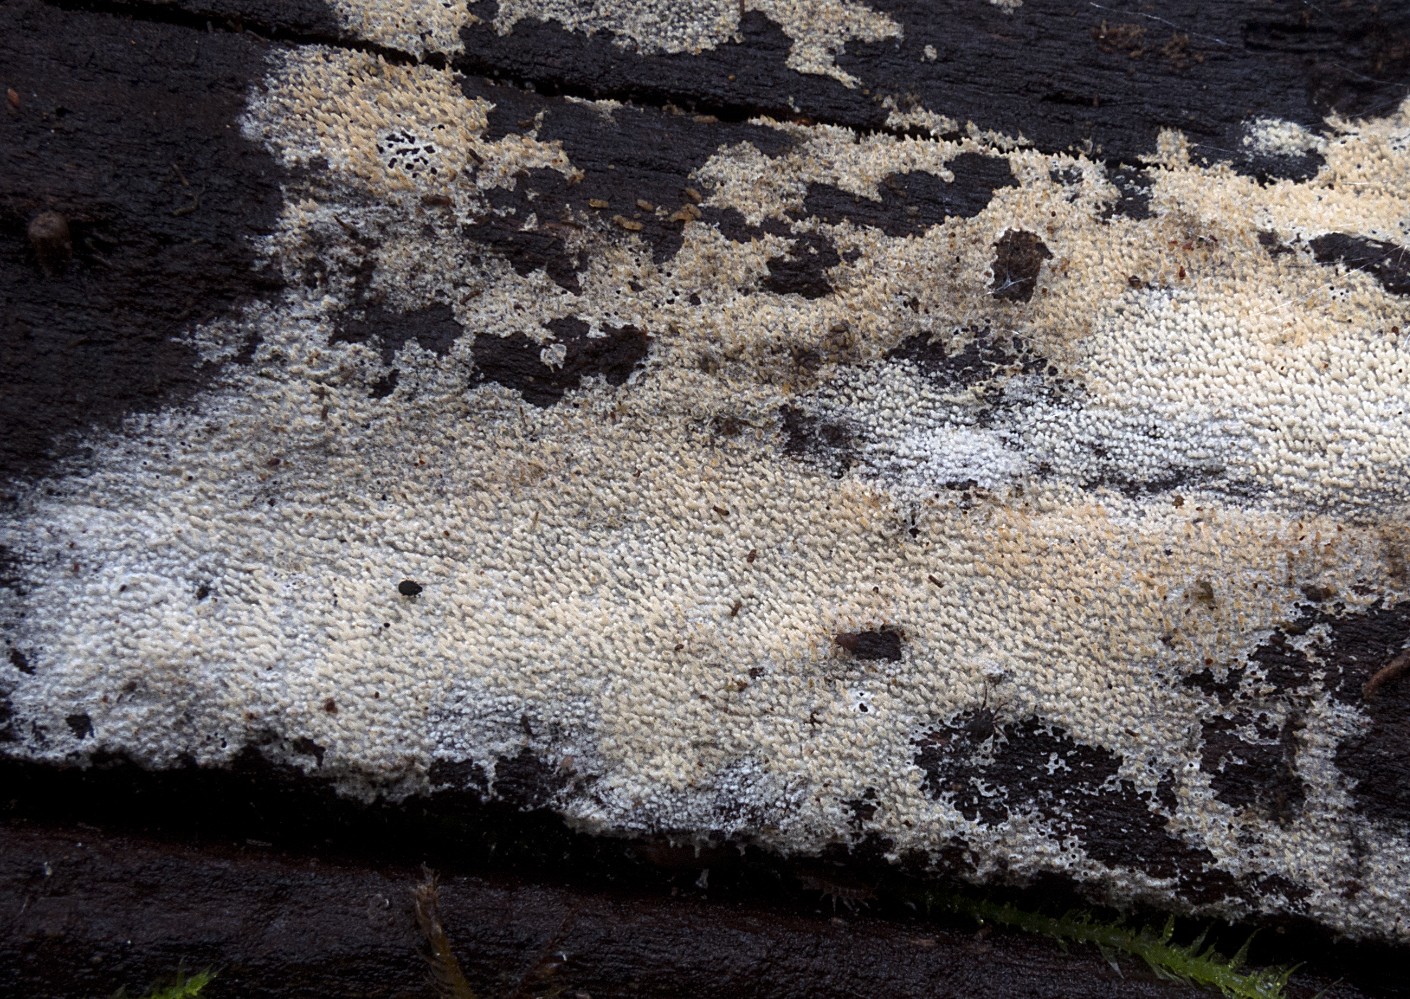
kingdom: Fungi
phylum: Basidiomycota
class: Agaricomycetes
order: Hymenochaetales
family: Hyphodontiaceae
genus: Hyphodontia
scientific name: Hyphodontia arguta
